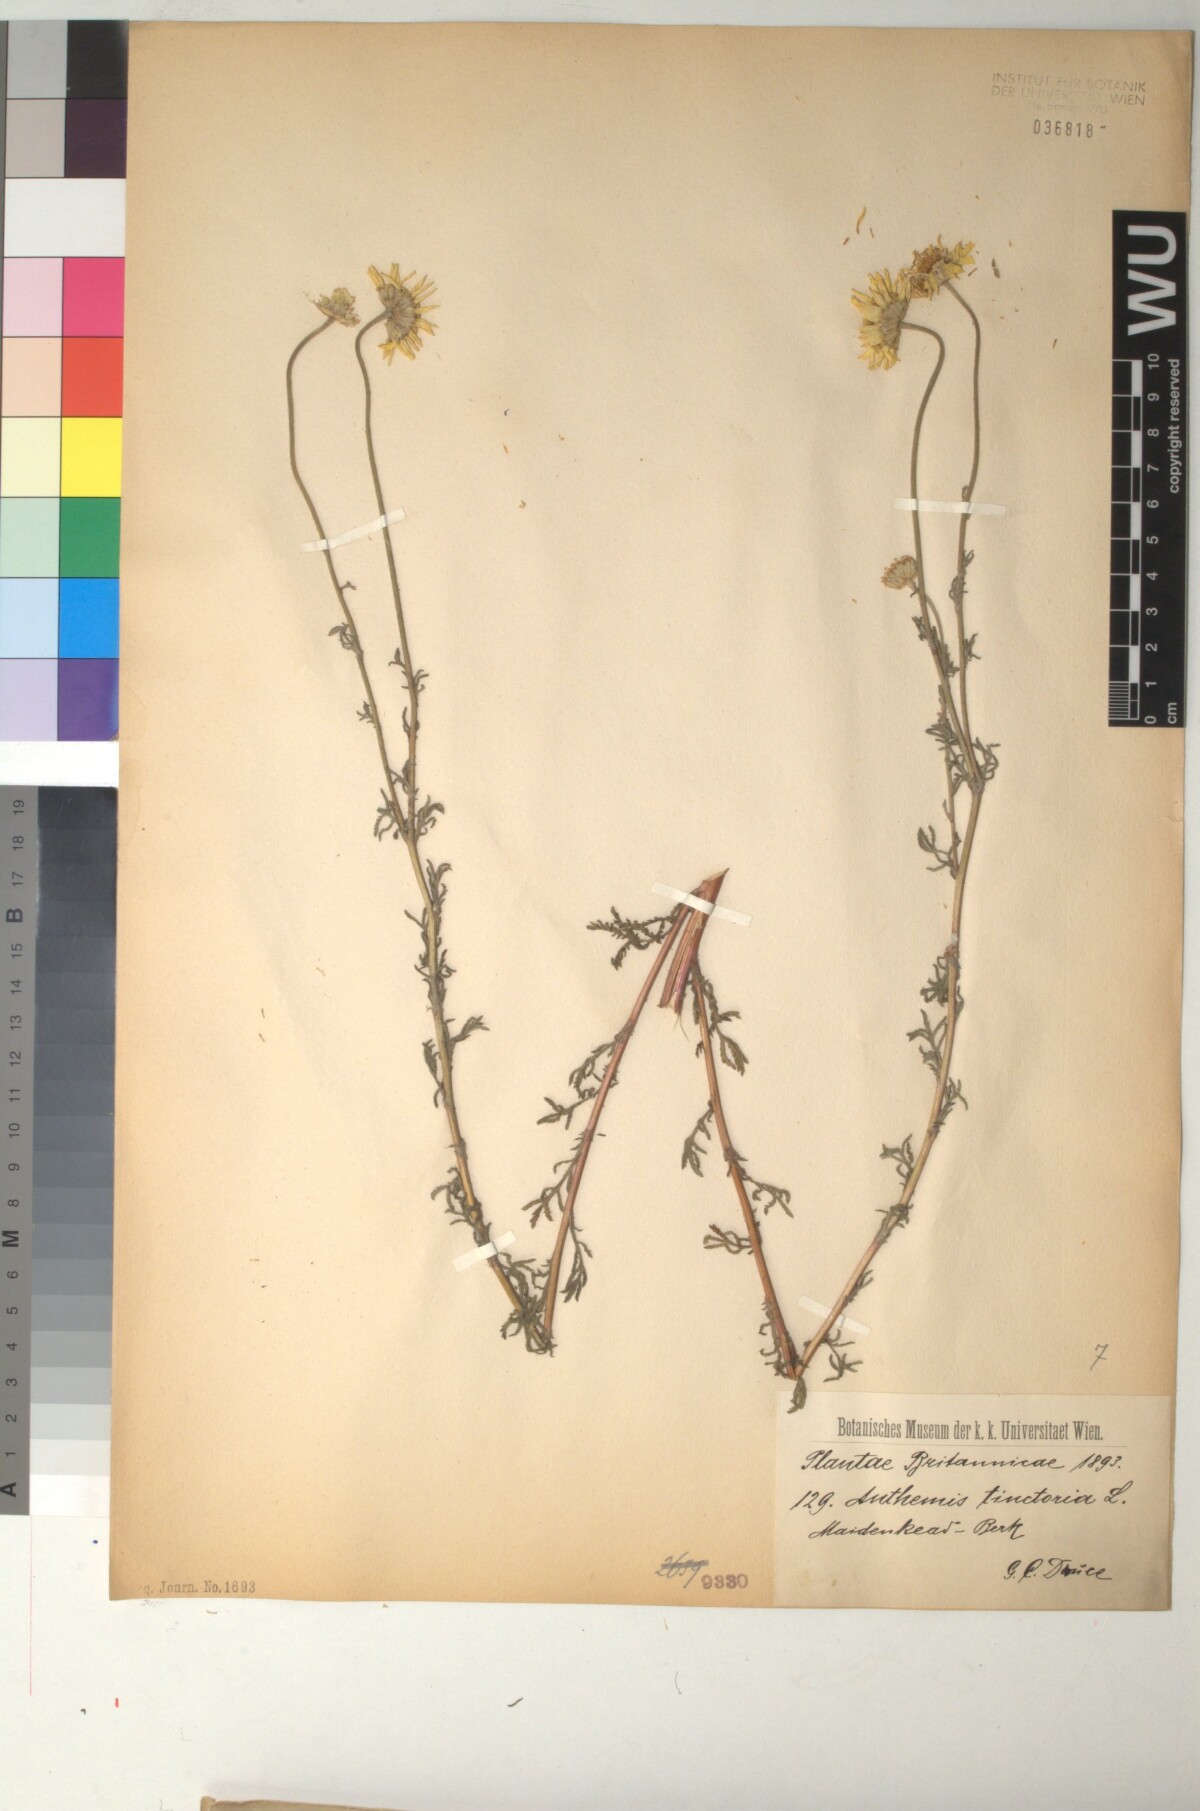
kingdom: Plantae
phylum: Tracheophyta
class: Magnoliopsida
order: Asterales
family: Asteraceae
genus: Cota
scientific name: Cota tinctoria
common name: Golden chamomile
